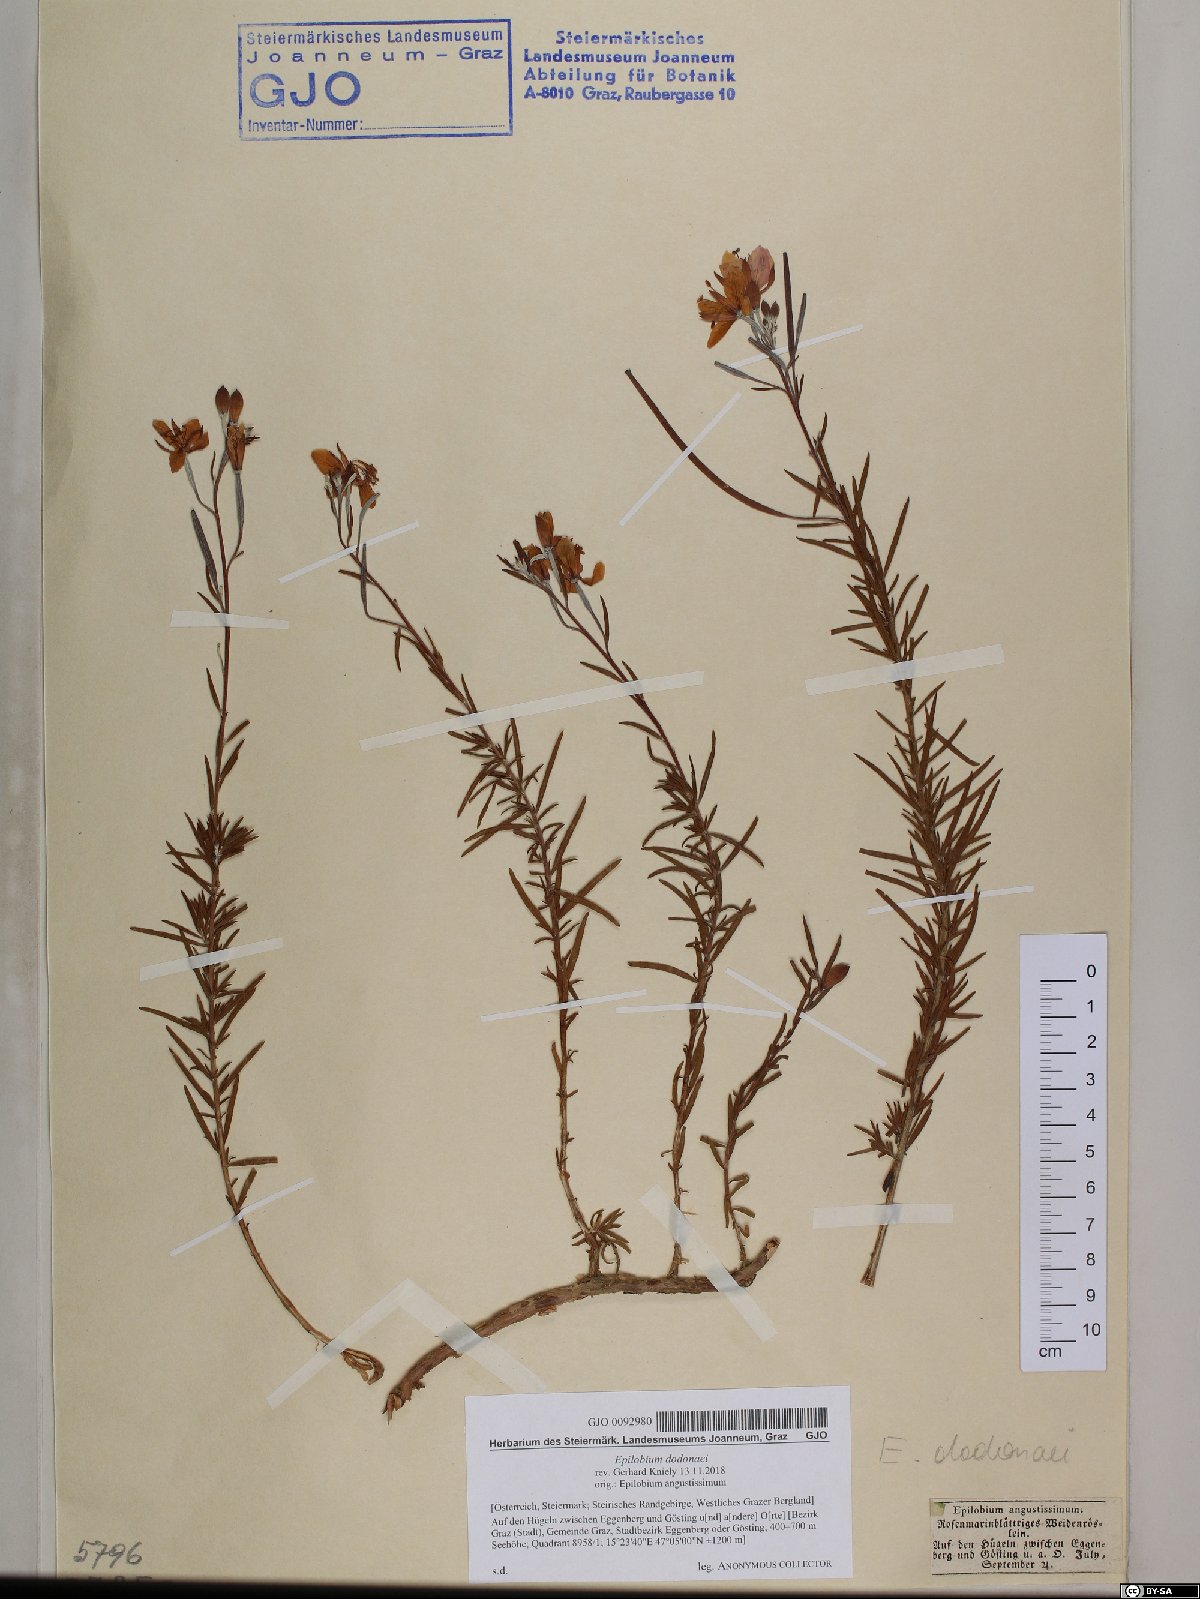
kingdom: Plantae
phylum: Tracheophyta
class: Magnoliopsida
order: Myrtales
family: Onagraceae
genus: Chamaenerion
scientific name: Chamaenerion dodonaei
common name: Rosemary-leaved willowherb
